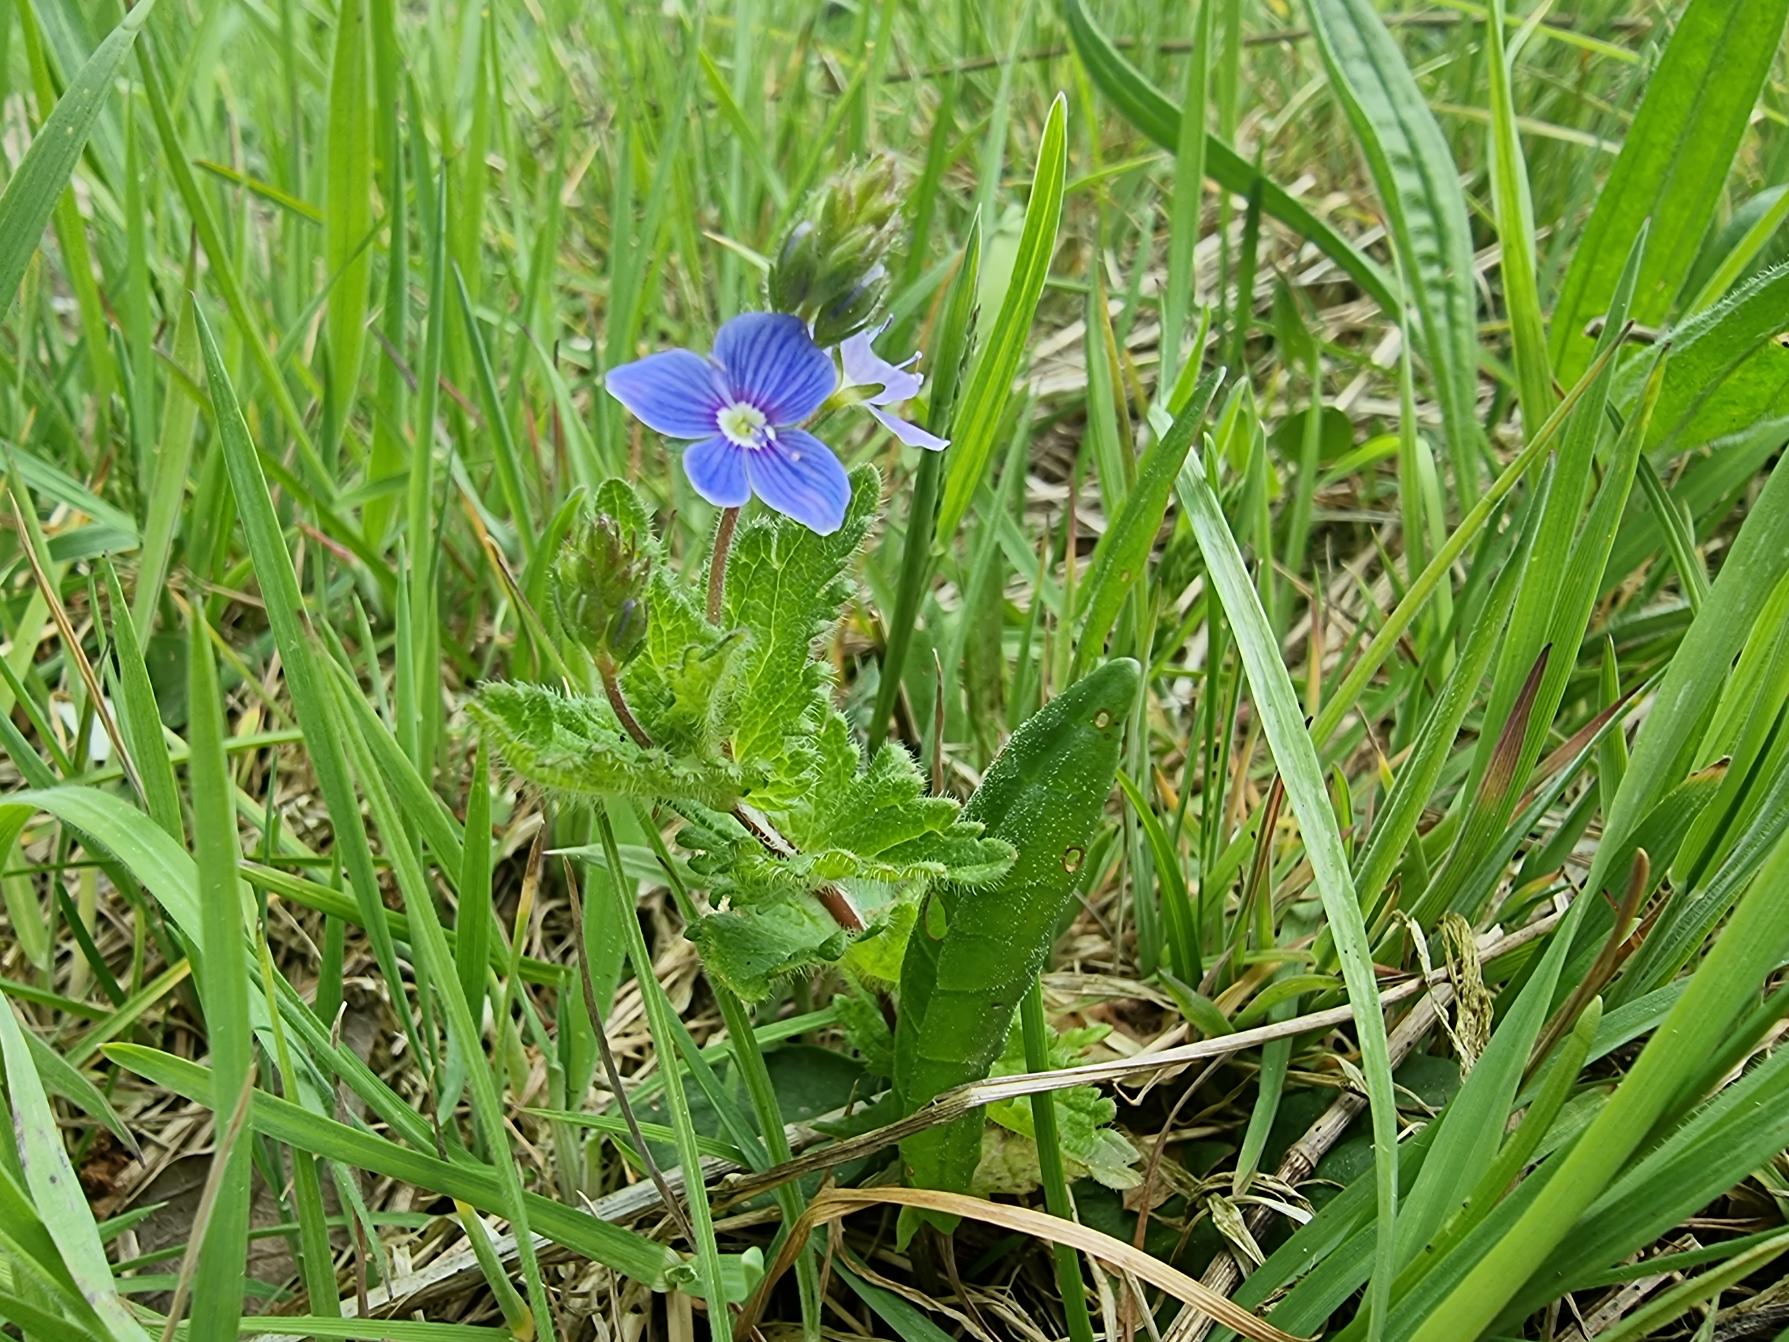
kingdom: Plantae
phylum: Tracheophyta
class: Magnoliopsida
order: Lamiales
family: Plantaginaceae
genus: Veronica
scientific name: Veronica chamaedrys
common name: Tveskægget ærenpris
